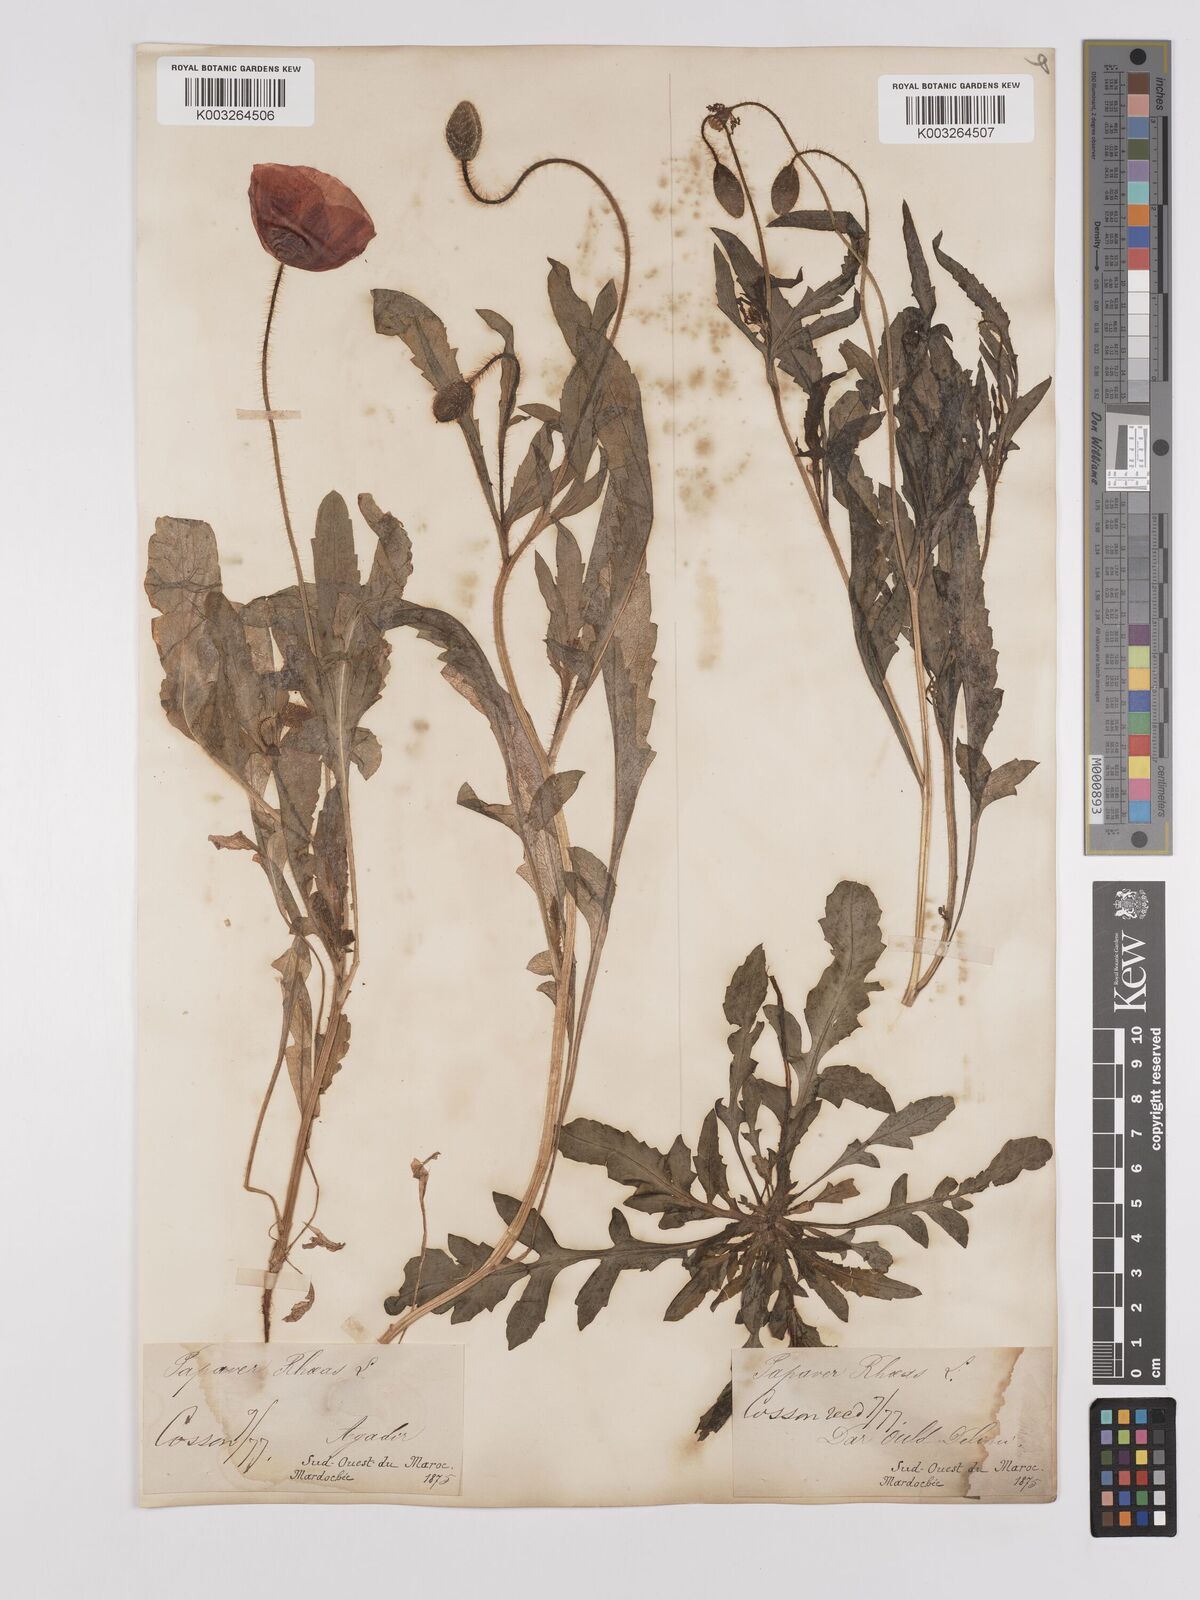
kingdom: Plantae
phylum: Tracheophyta
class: Magnoliopsida
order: Ranunculales
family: Papaveraceae
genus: Papaver
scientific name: Papaver rhoeas
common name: Corn poppy
